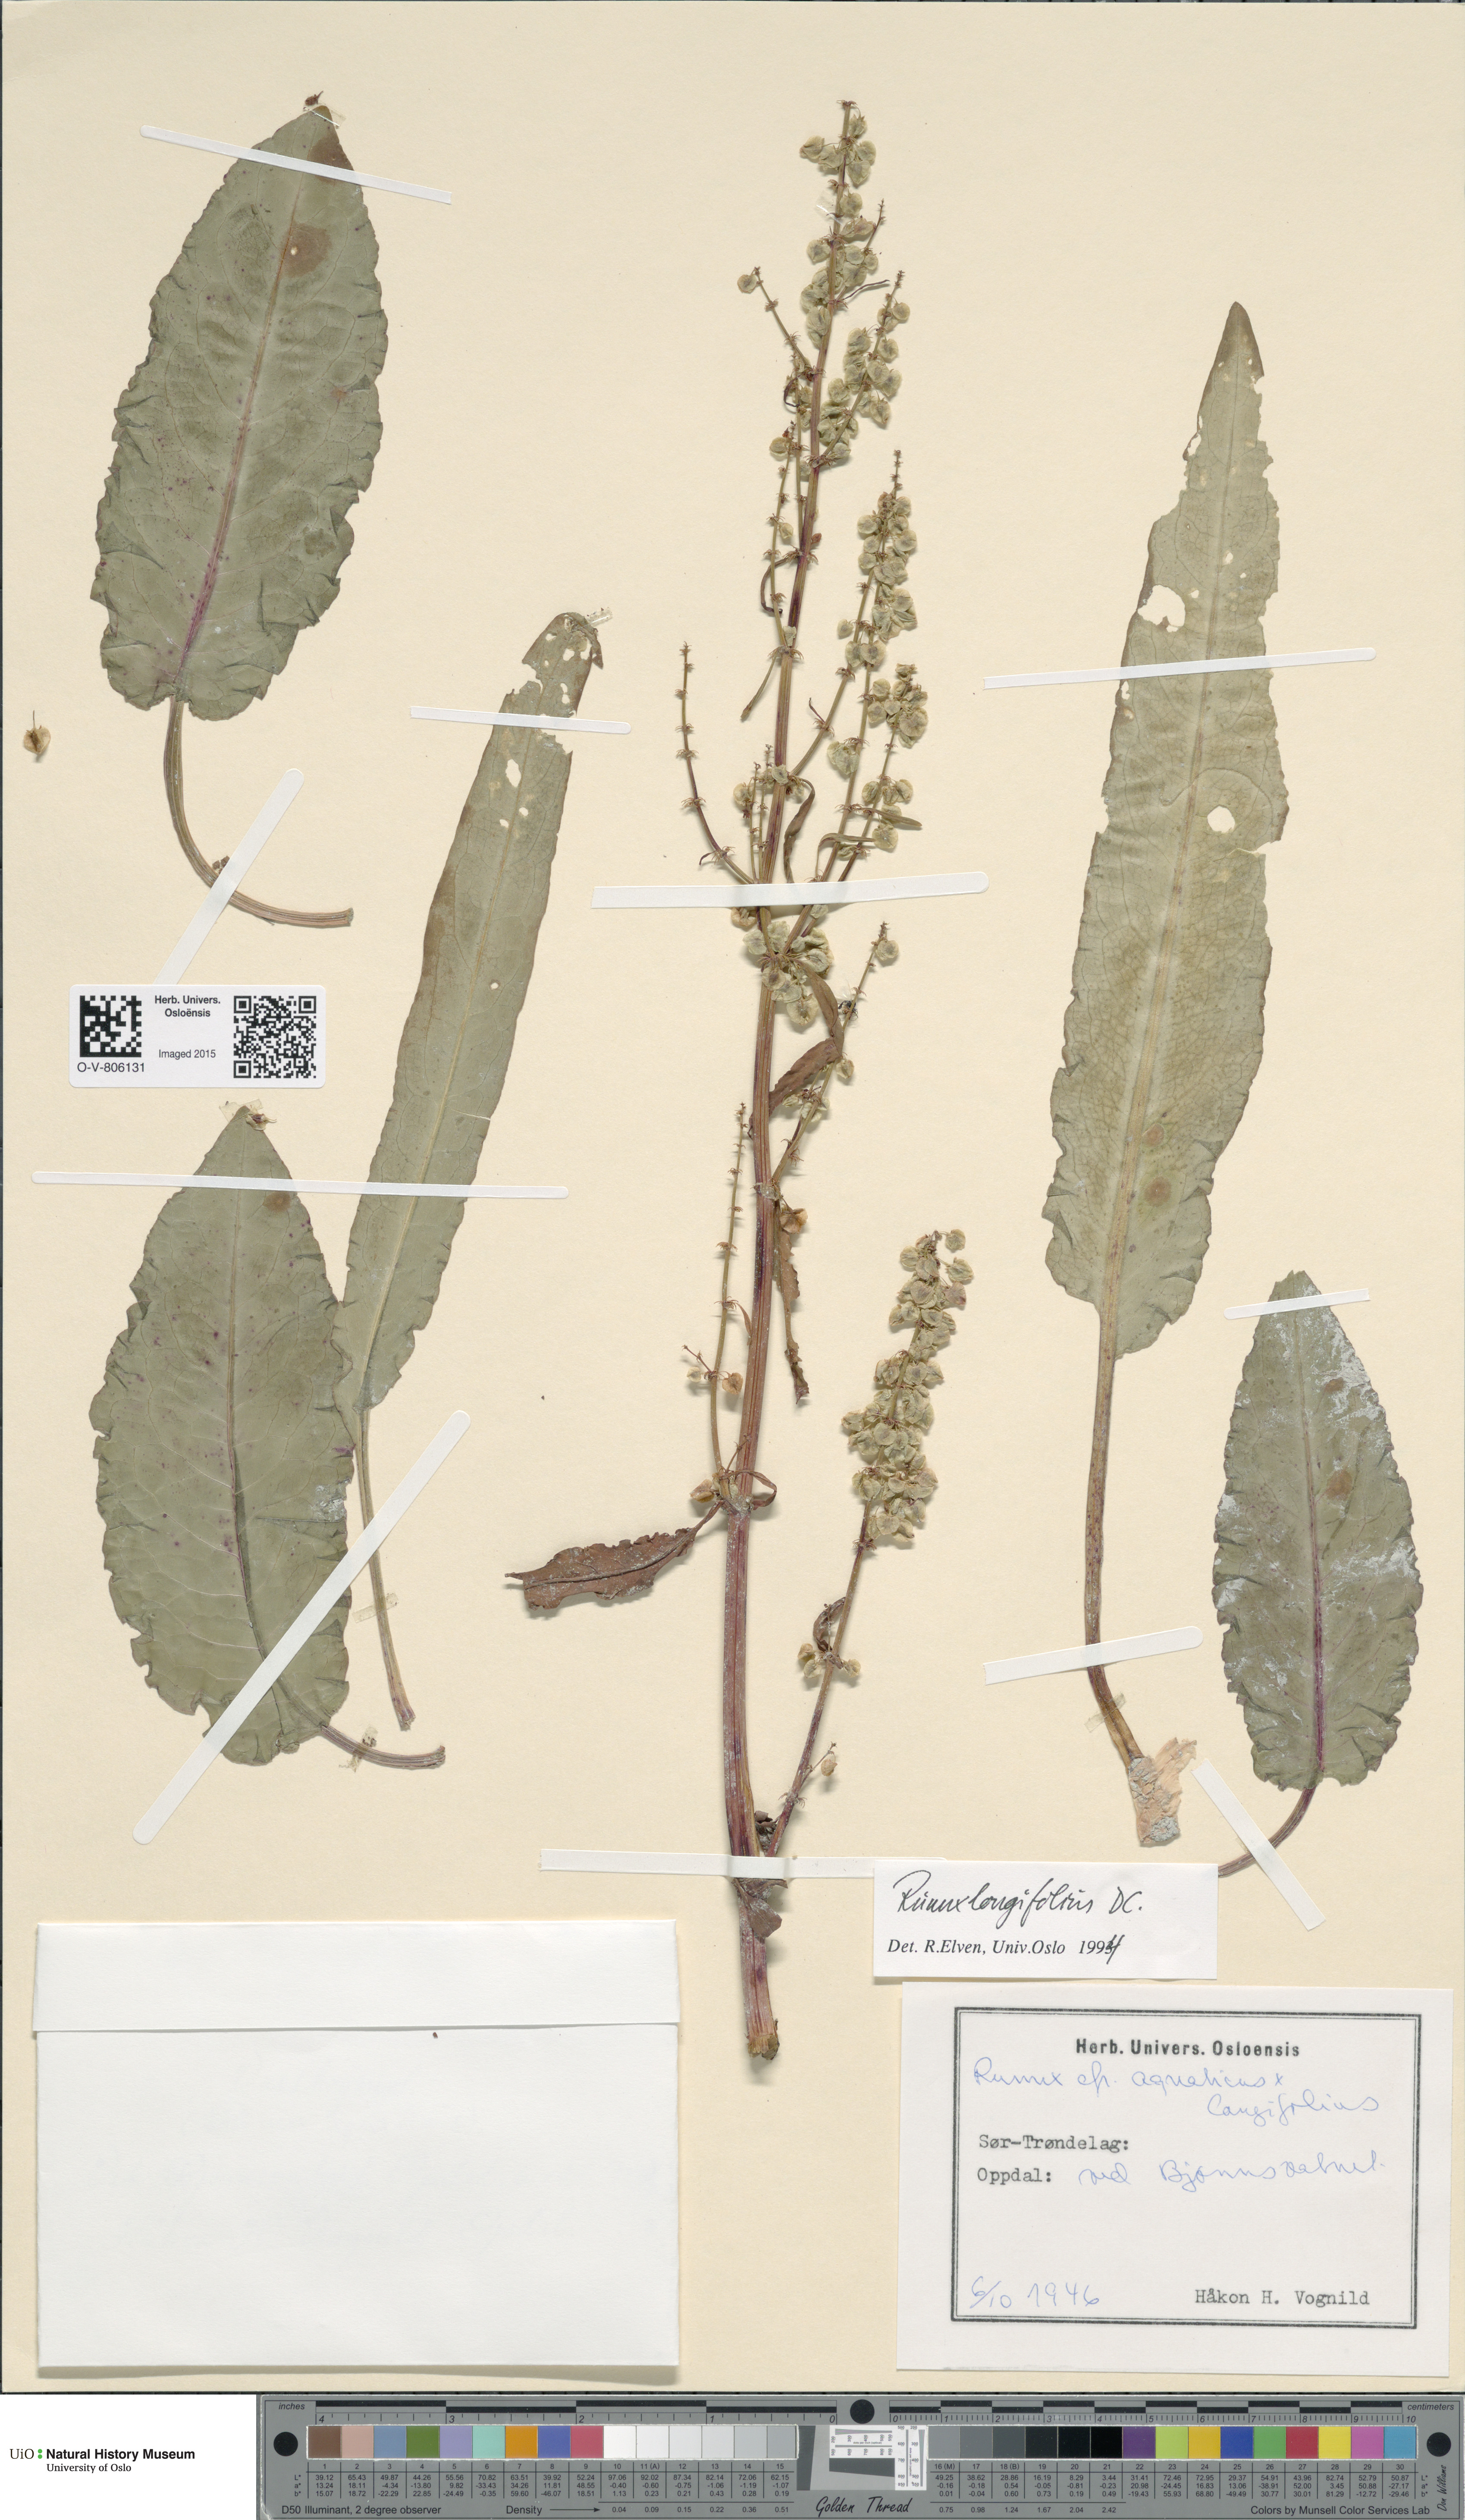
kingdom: Plantae
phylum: Tracheophyta
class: Magnoliopsida
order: Caryophyllales
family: Polygonaceae
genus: Rumex
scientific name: Rumex longifolius
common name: Dooryard dock
